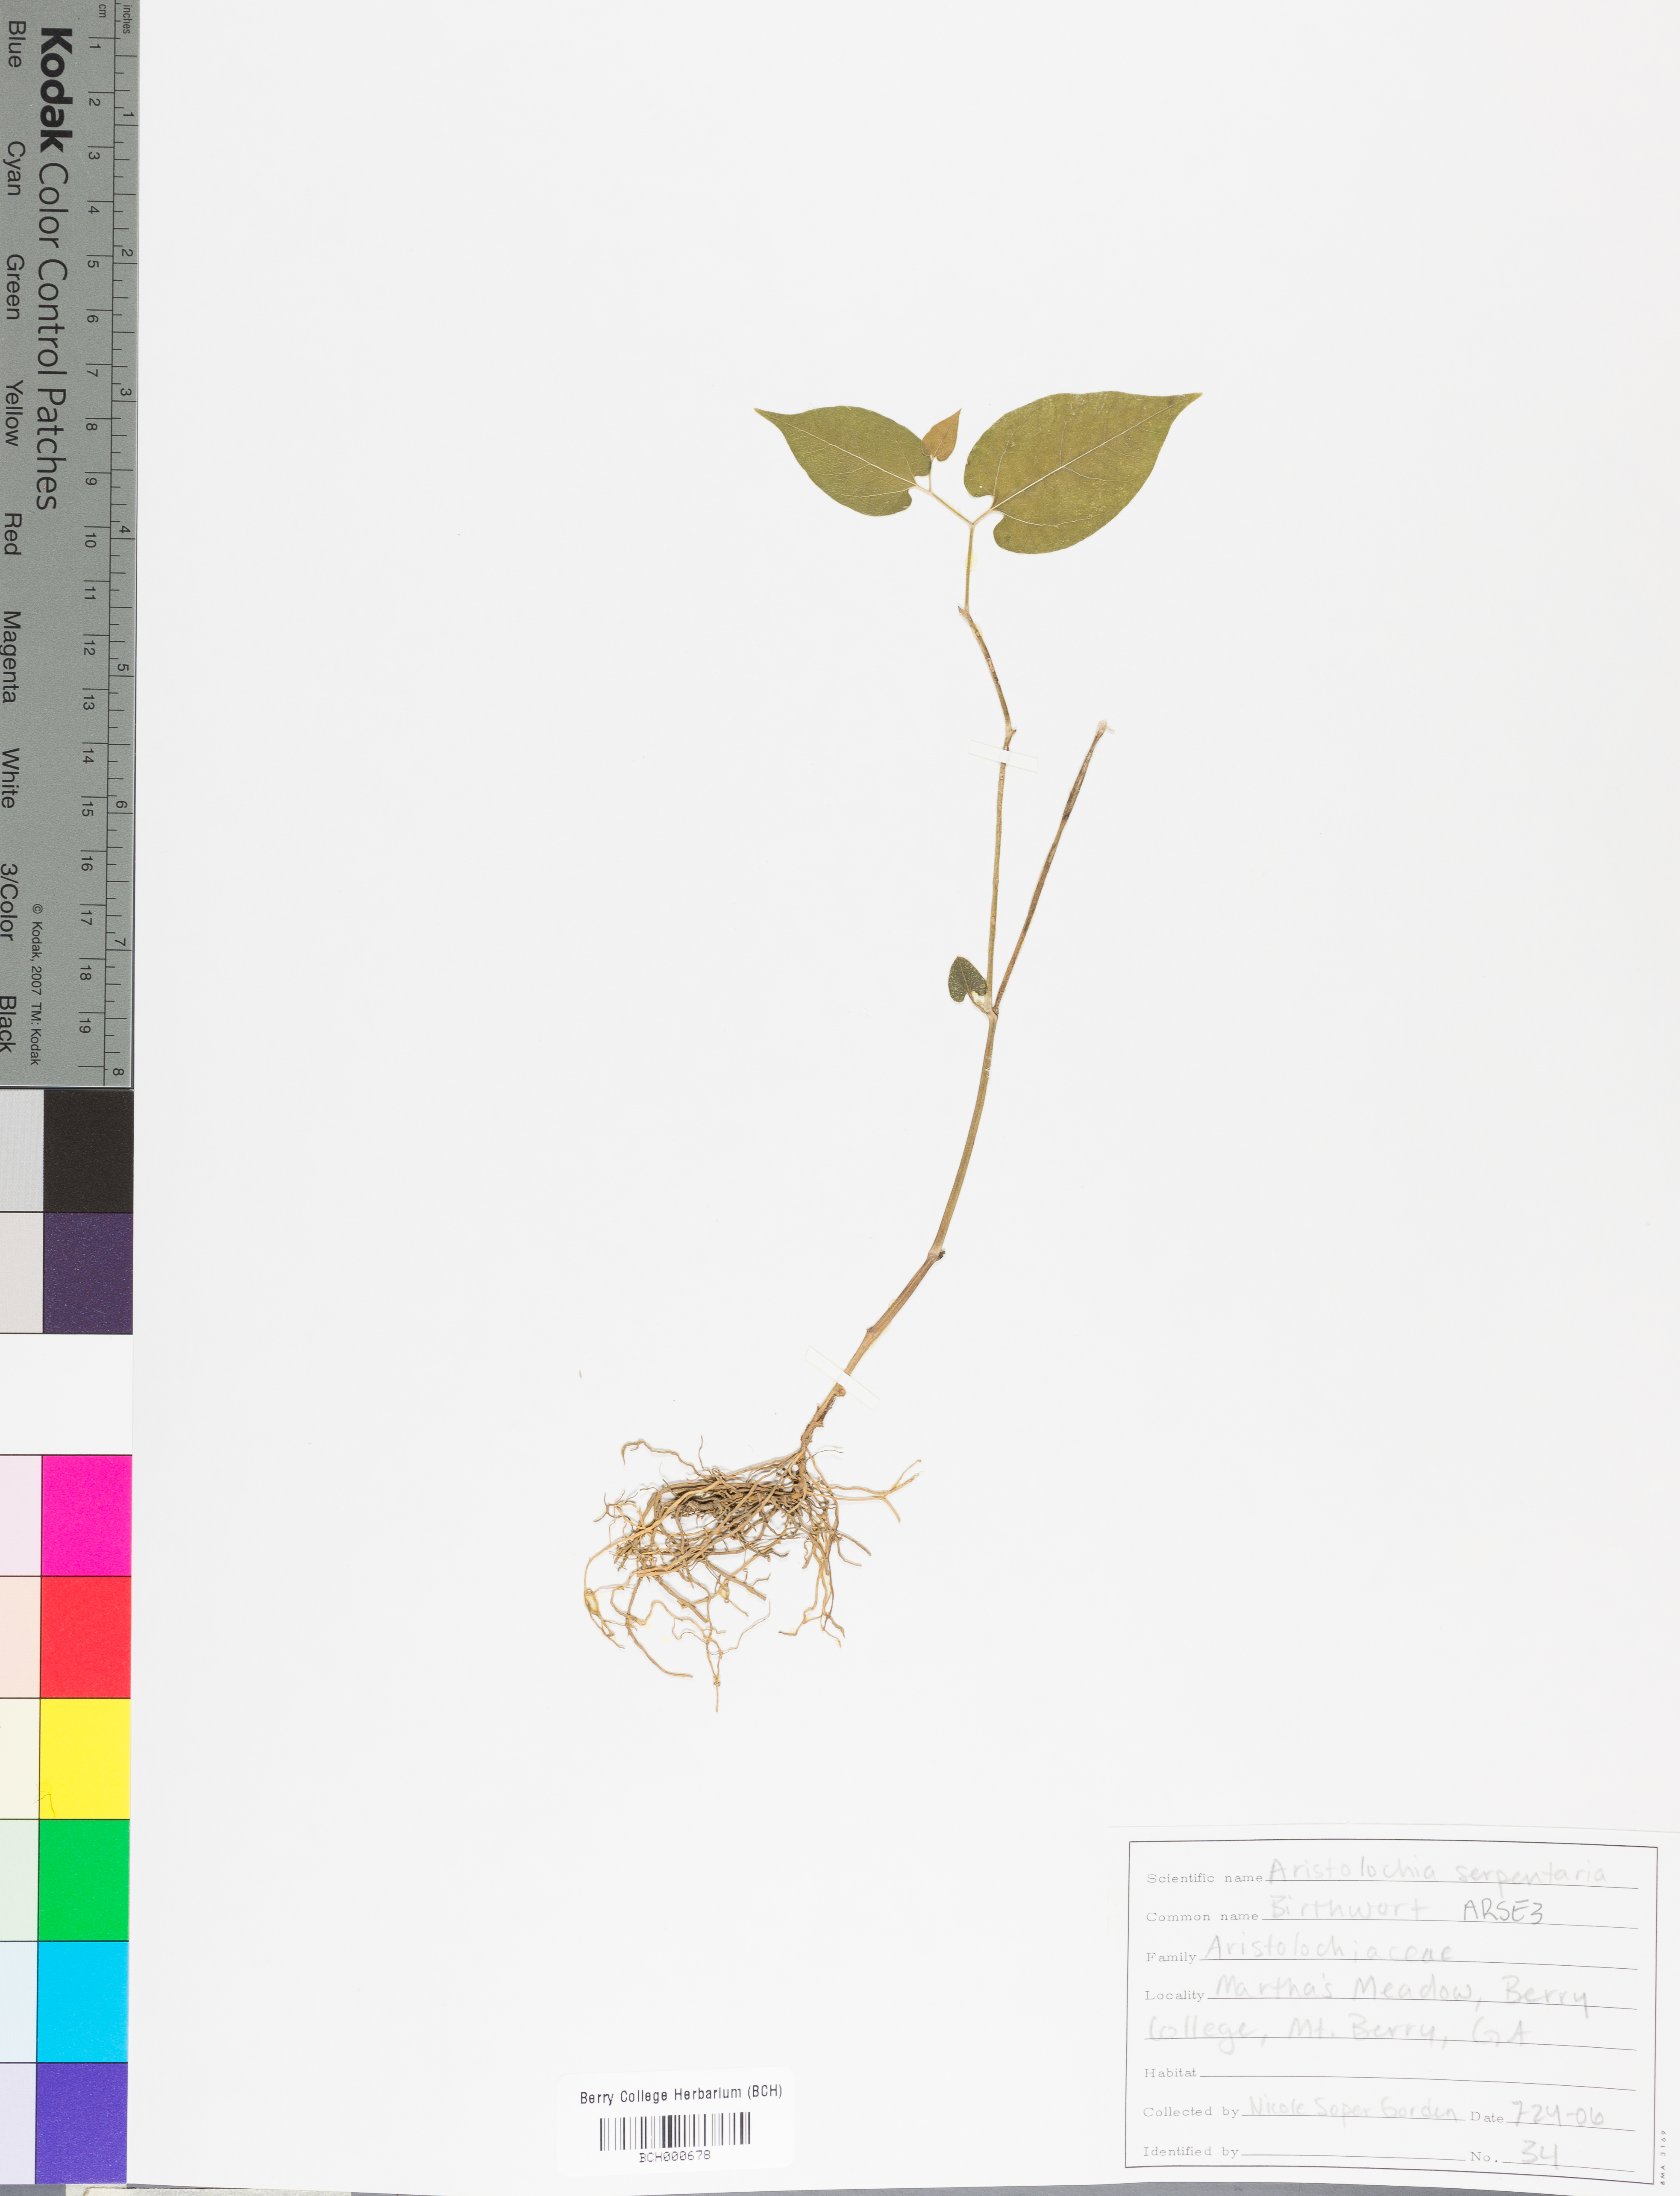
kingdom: Plantae
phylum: Tracheophyta
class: Magnoliopsida
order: Piperales
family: Aristolochiaceae
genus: Endodeca
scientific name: Endodeca serpentaria
